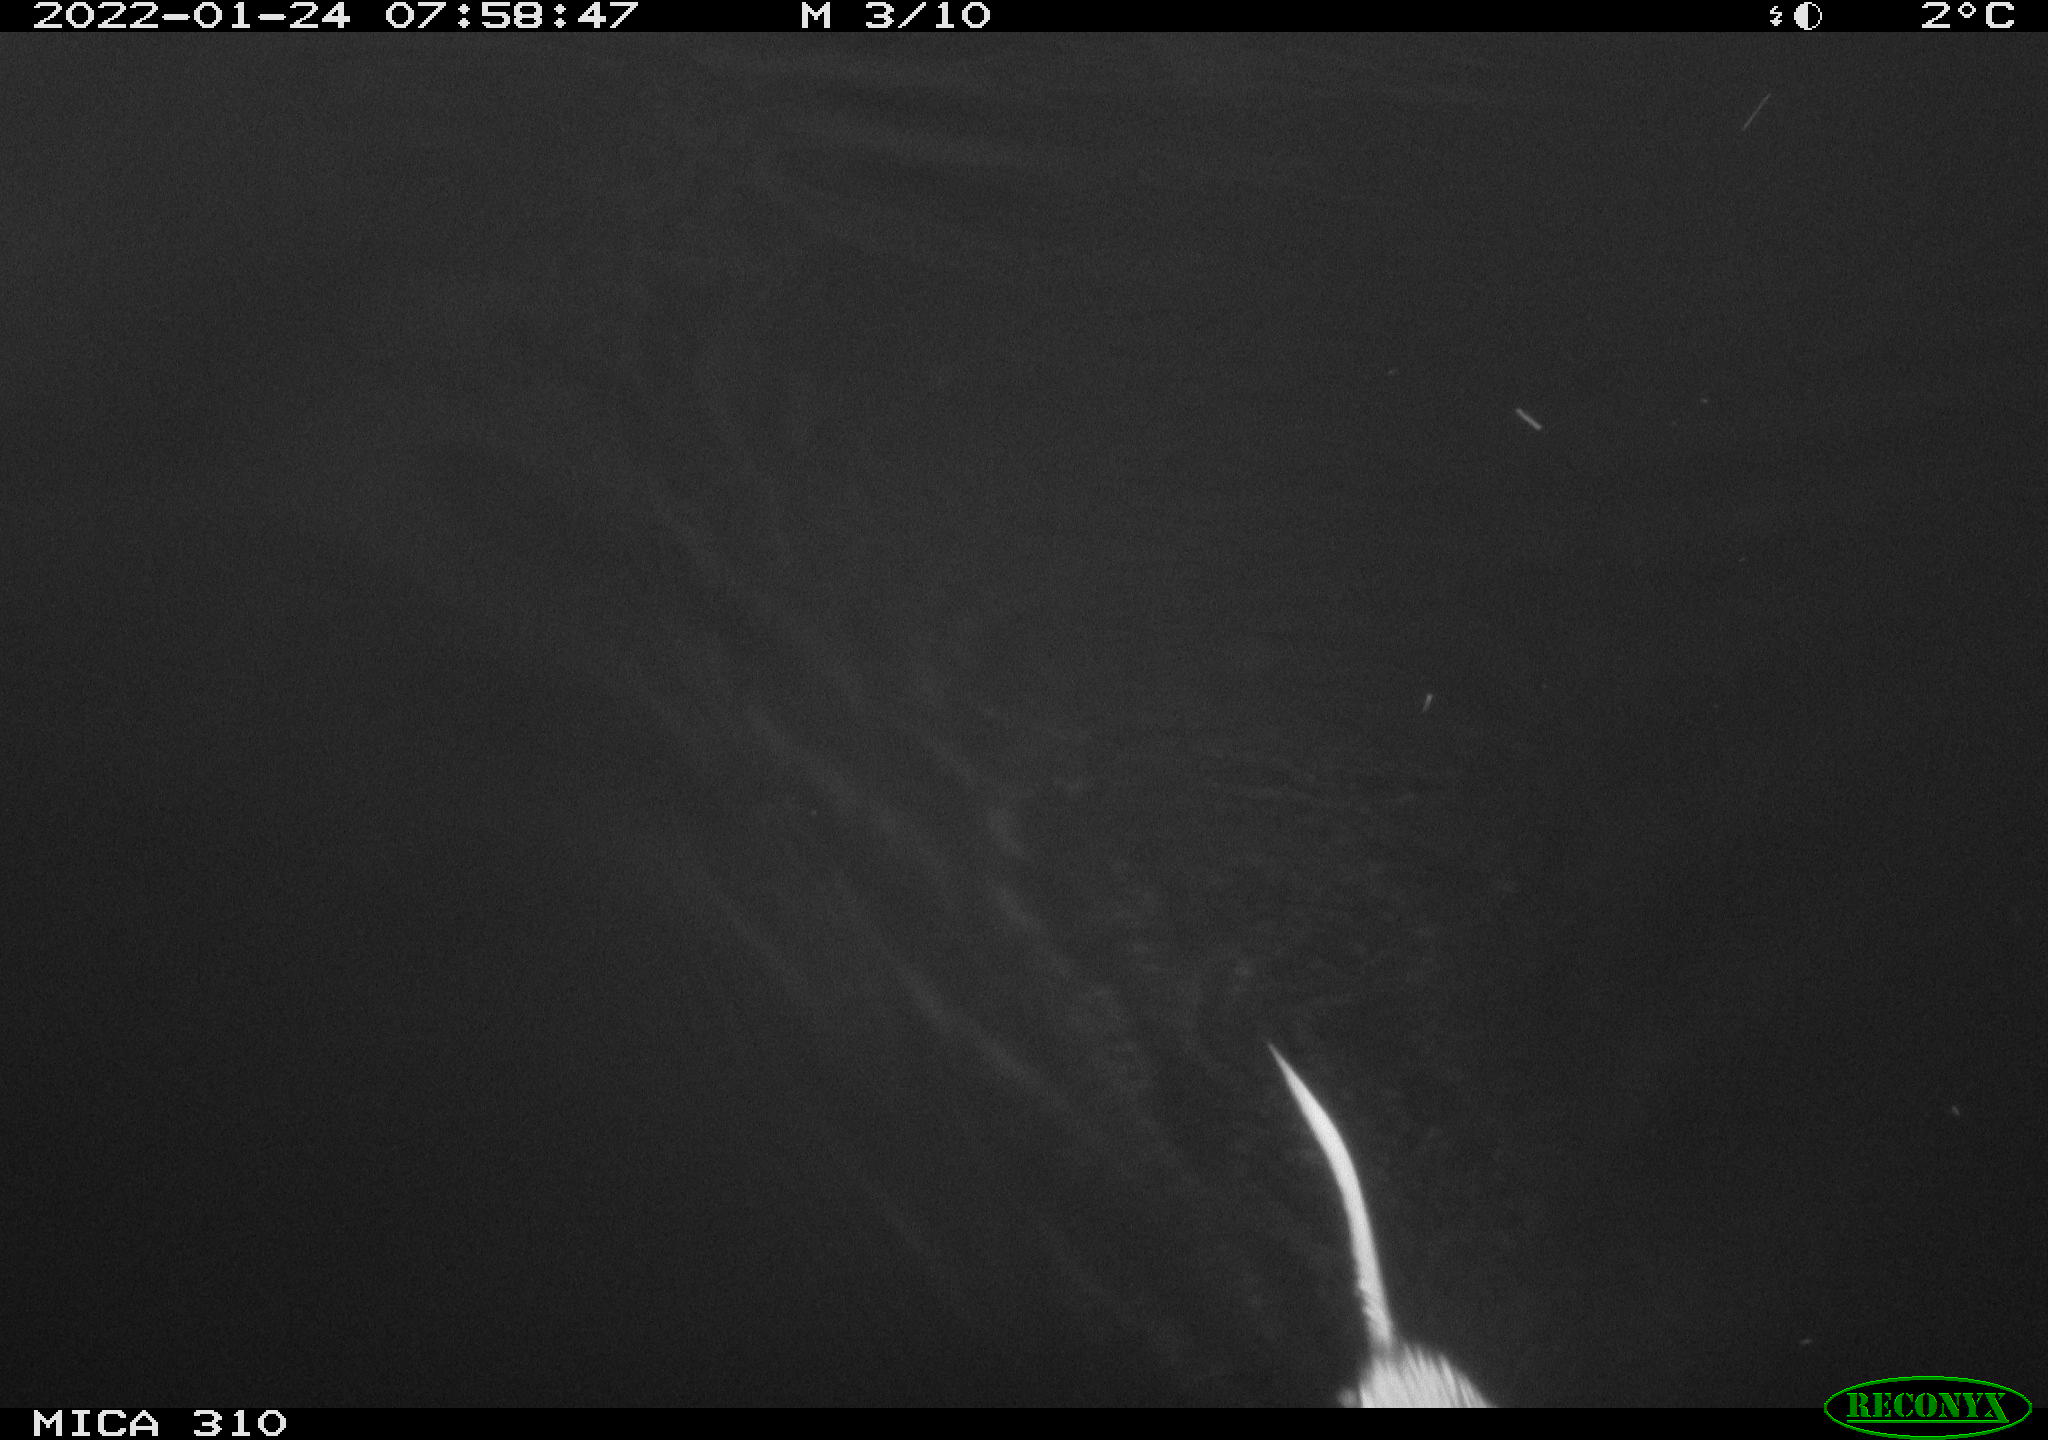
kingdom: Animalia
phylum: Chordata
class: Mammalia
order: Rodentia
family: Cricetidae
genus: Ondatra
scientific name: Ondatra zibethicus
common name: Muskrat
